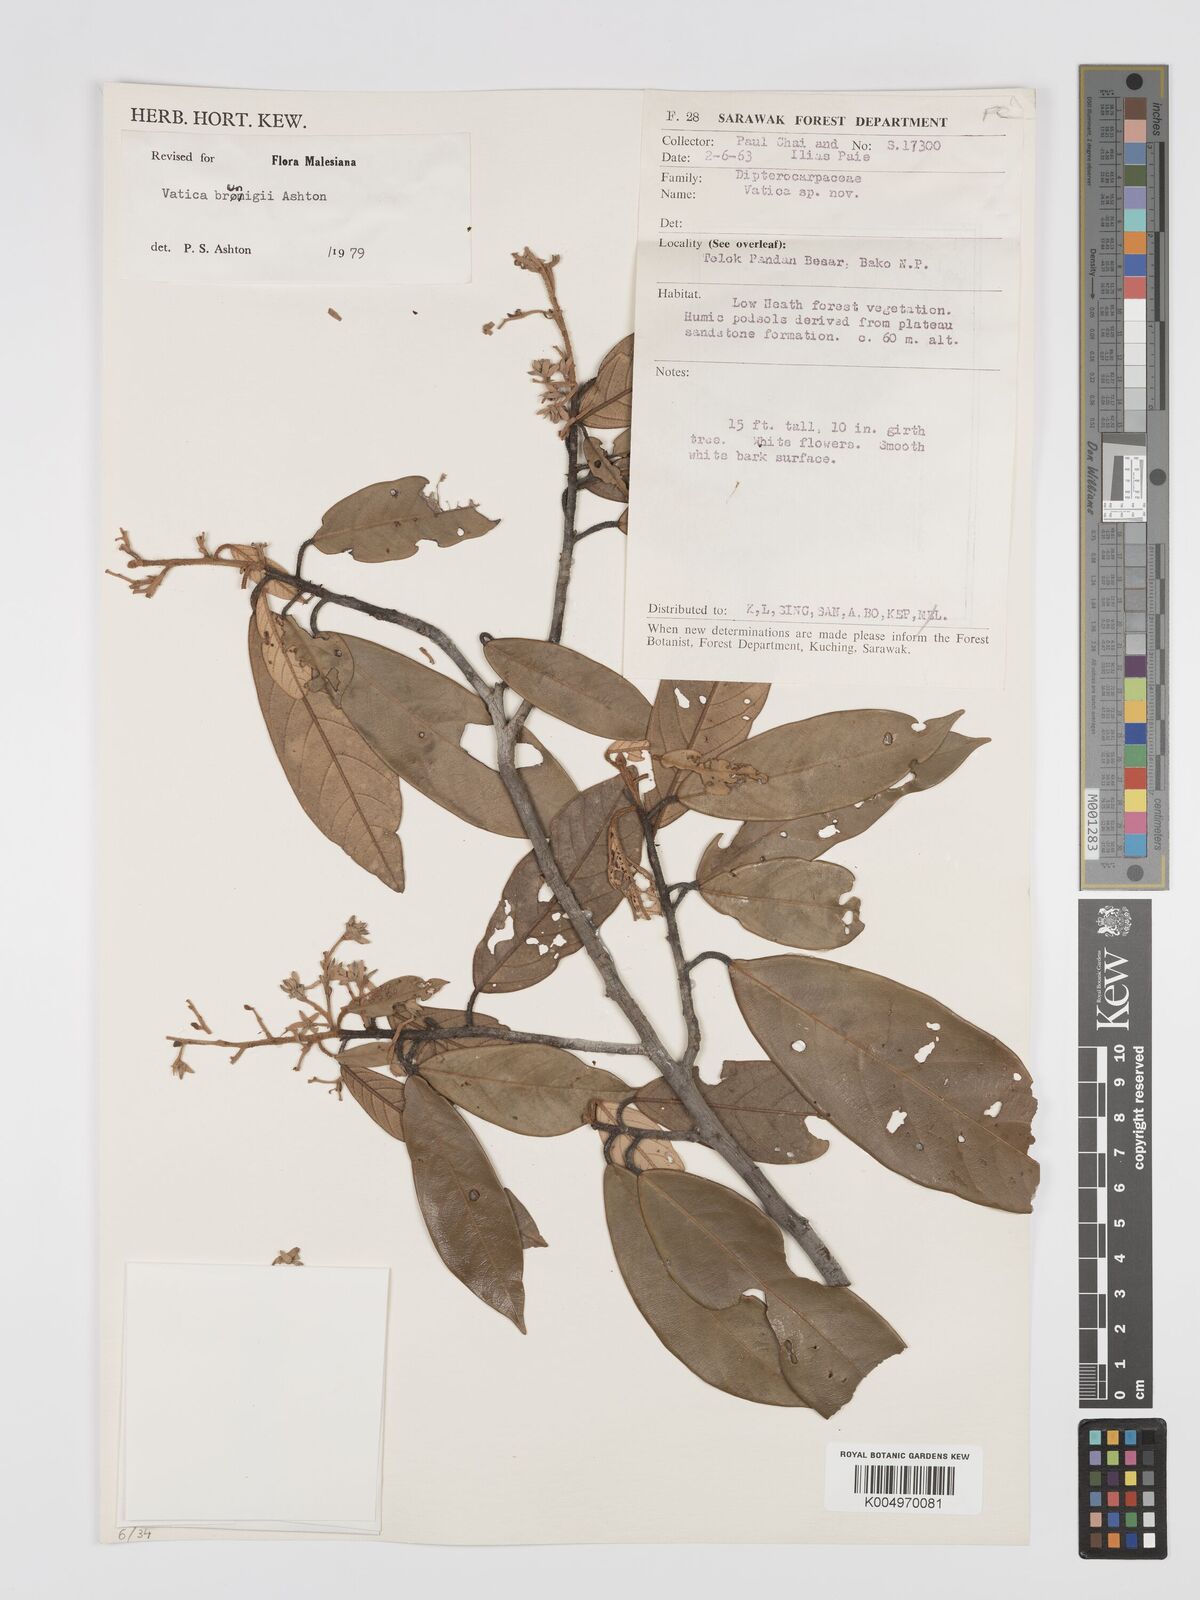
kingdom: Plantae
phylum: Tracheophyta
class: Magnoliopsida
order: Malvales
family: Dipterocarpaceae
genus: Vatica
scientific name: Vatica brunigii
